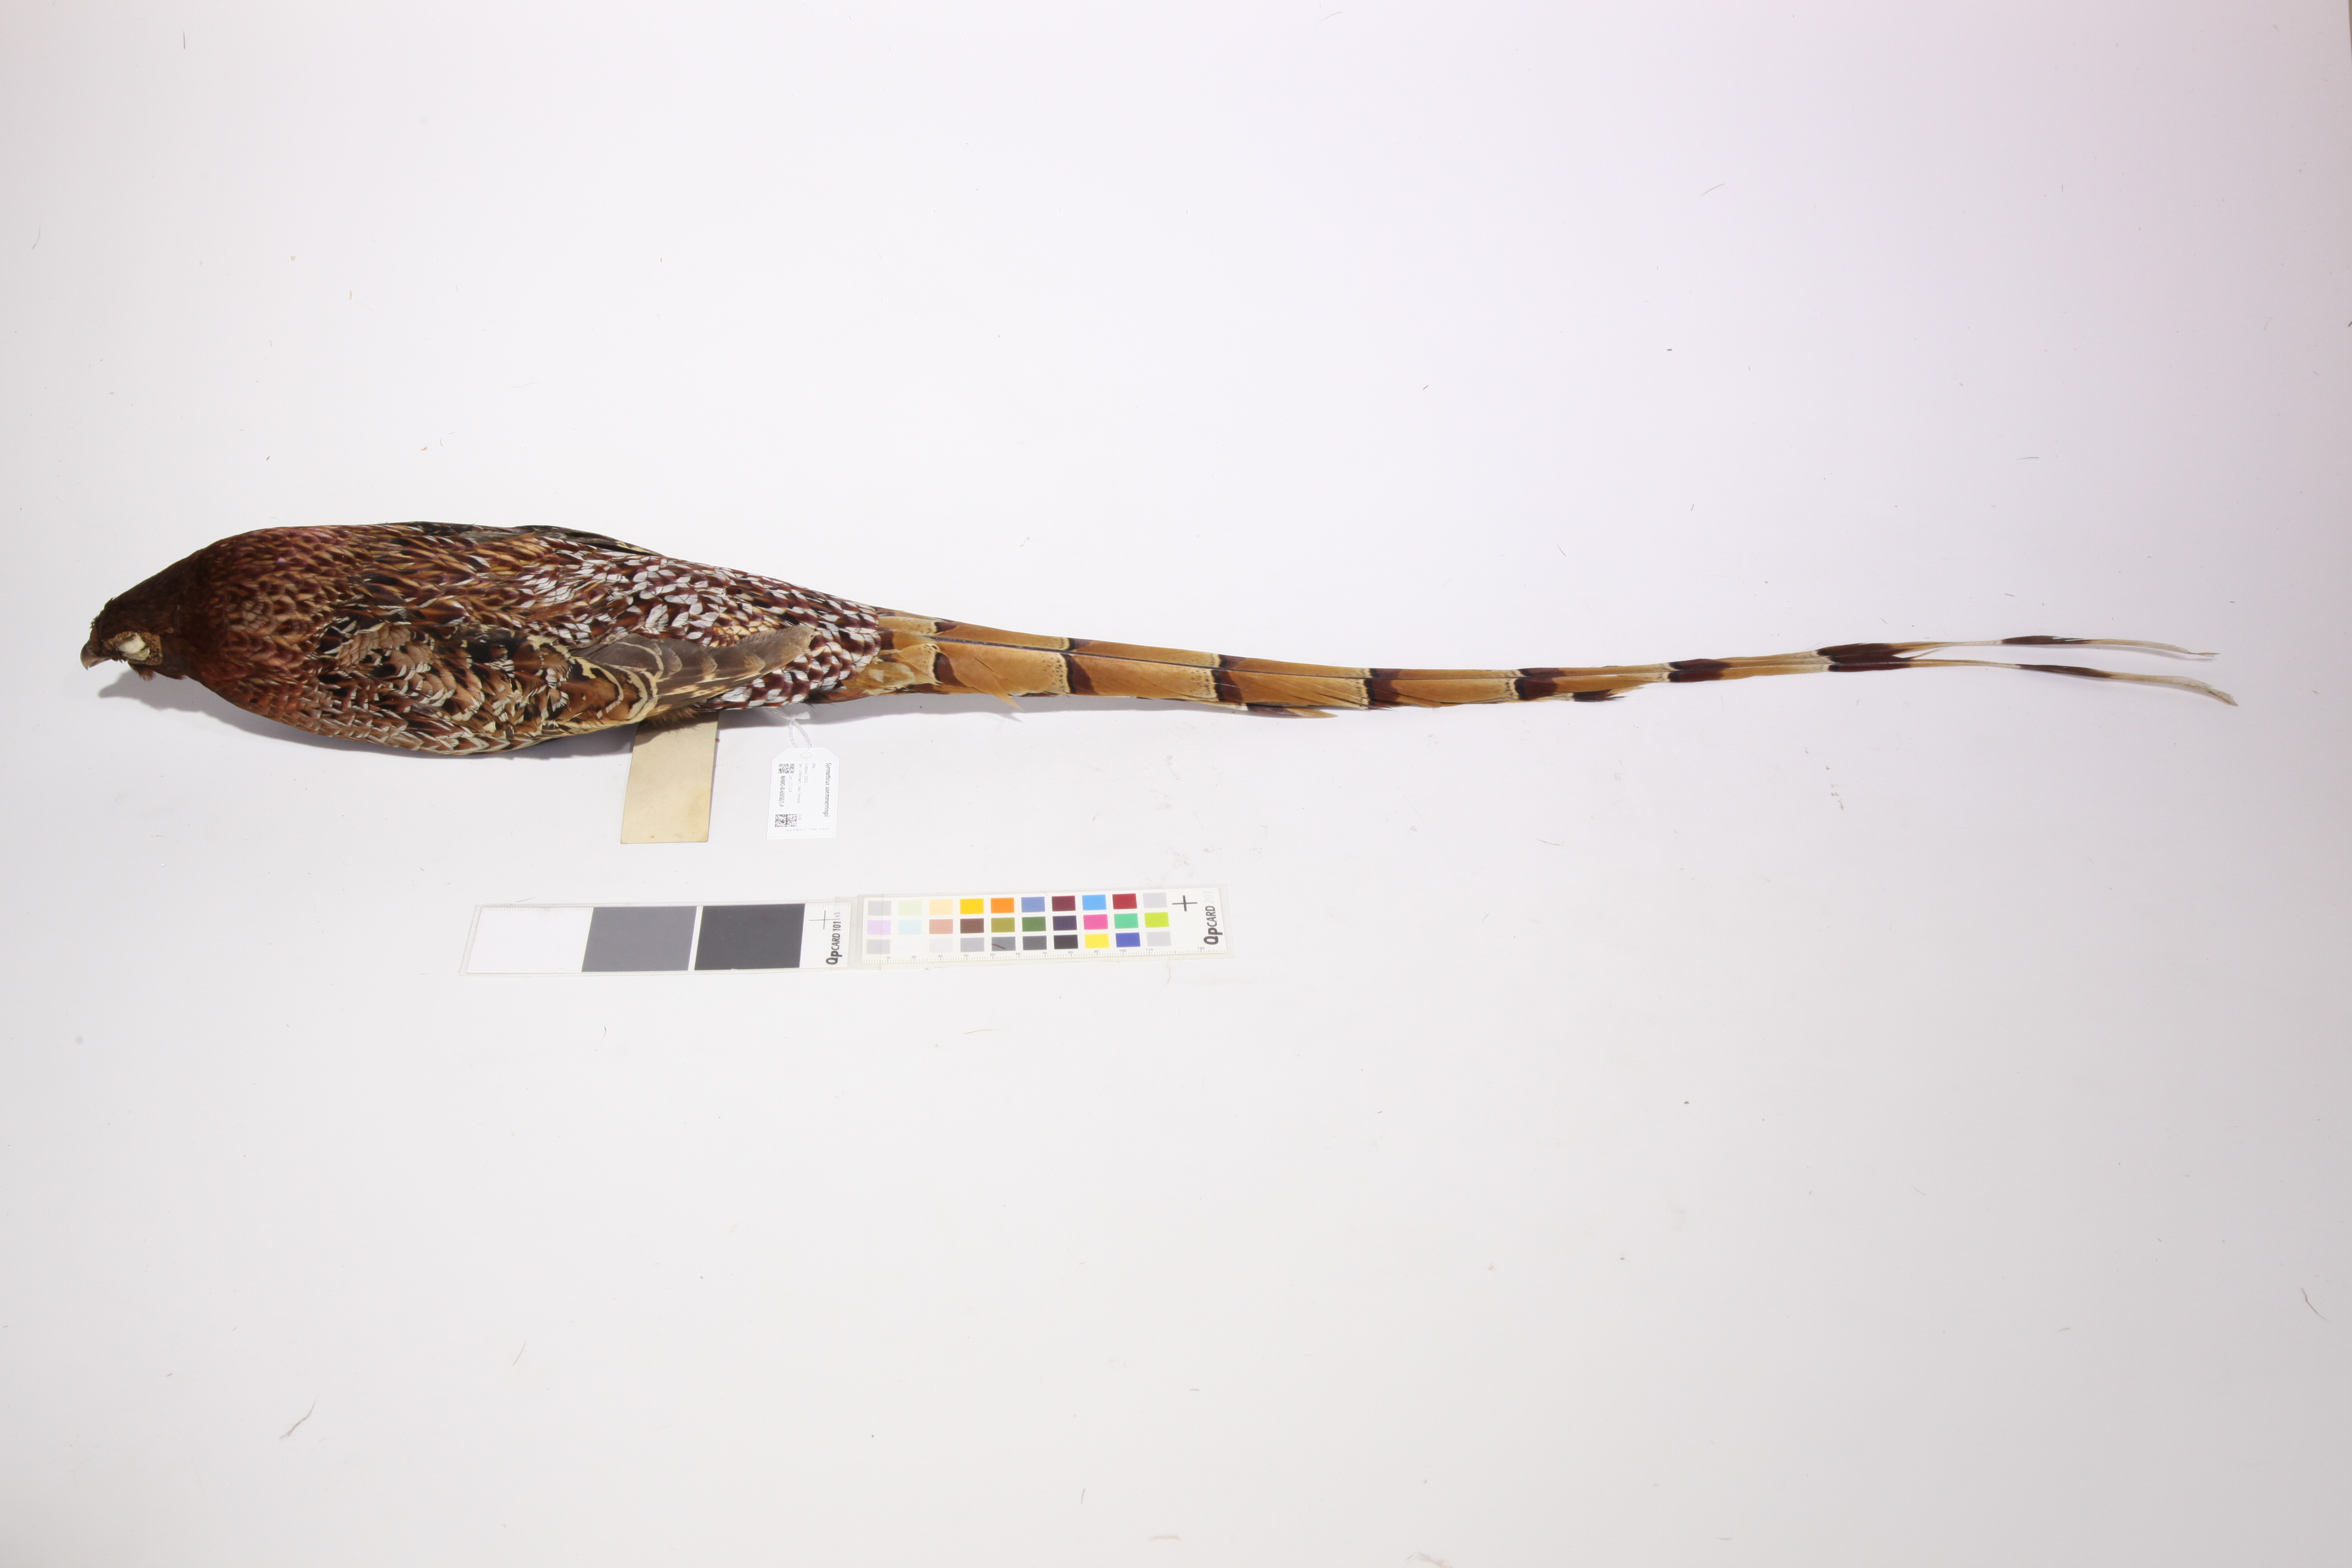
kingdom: Animalia
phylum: Chordata
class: Aves
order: Galliformes
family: Phasianidae
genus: Syrmaticus
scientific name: Syrmaticus soemmerringii
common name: Copper pheasant
